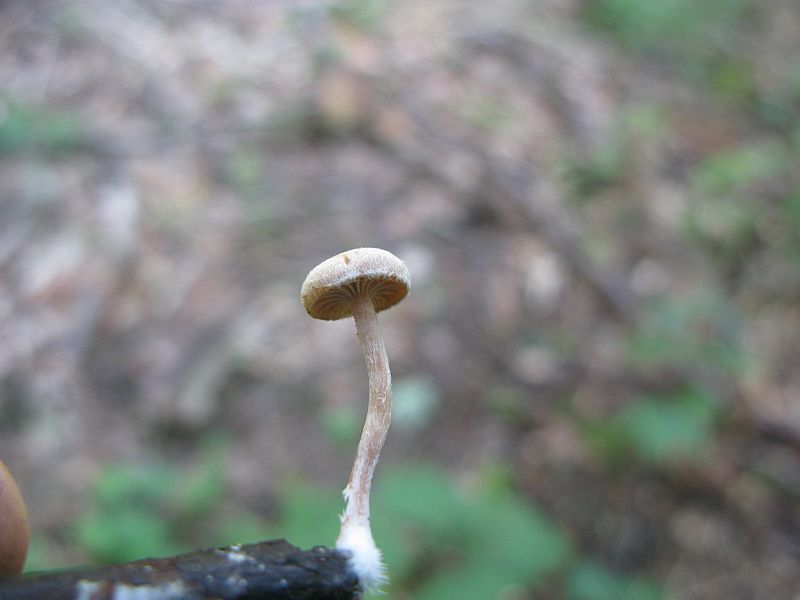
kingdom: Fungi
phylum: Basidiomycota
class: Agaricomycetes
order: Agaricales
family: Tubariaceae
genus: Tubaria
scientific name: Tubaria conspersa
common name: bleg fnughat
